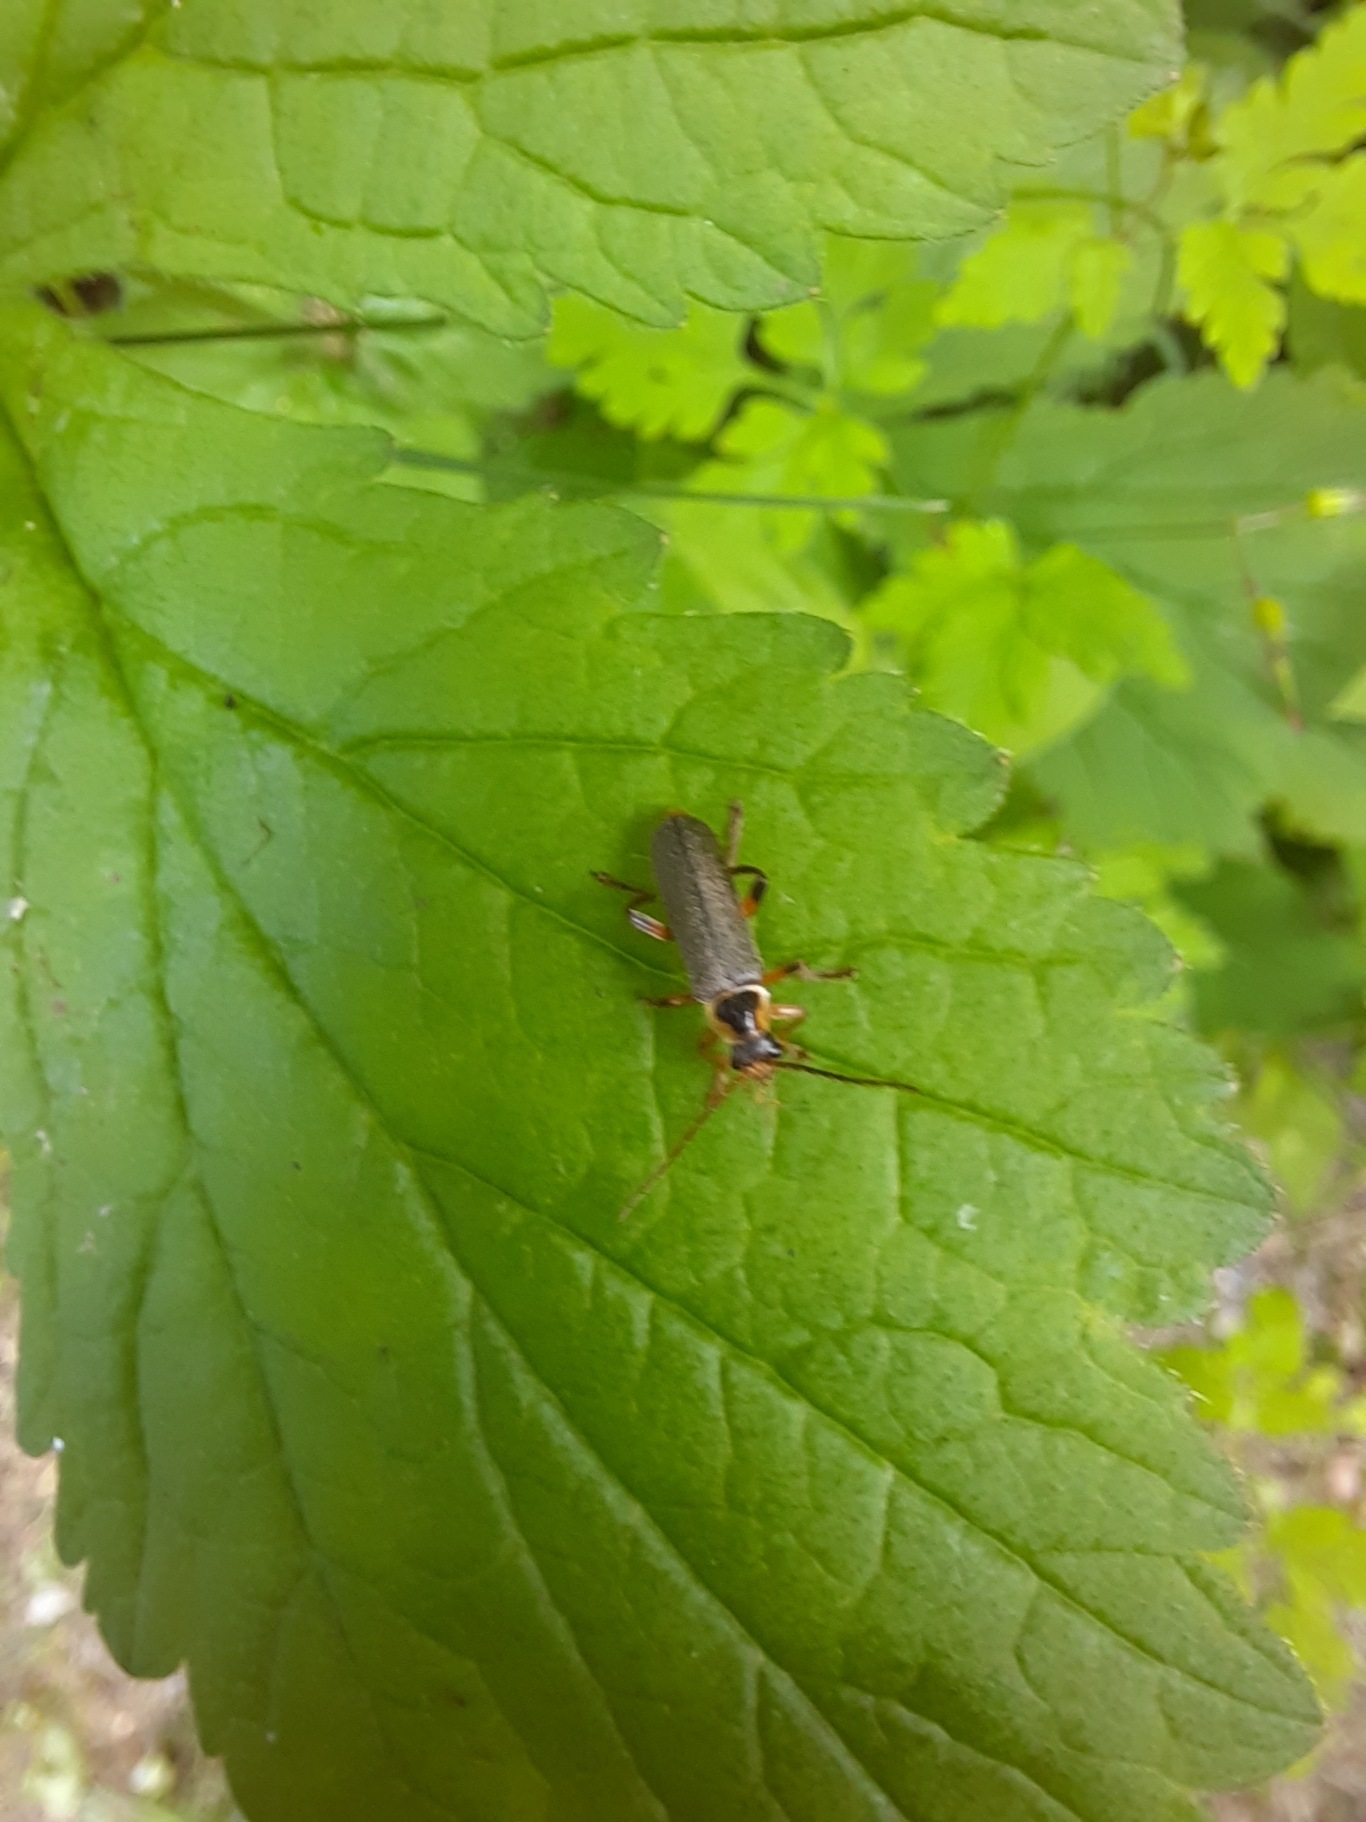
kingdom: Animalia
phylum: Arthropoda
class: Insecta
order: Coleoptera
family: Cantharidae
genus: Cantharis
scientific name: Cantharis nigricans
